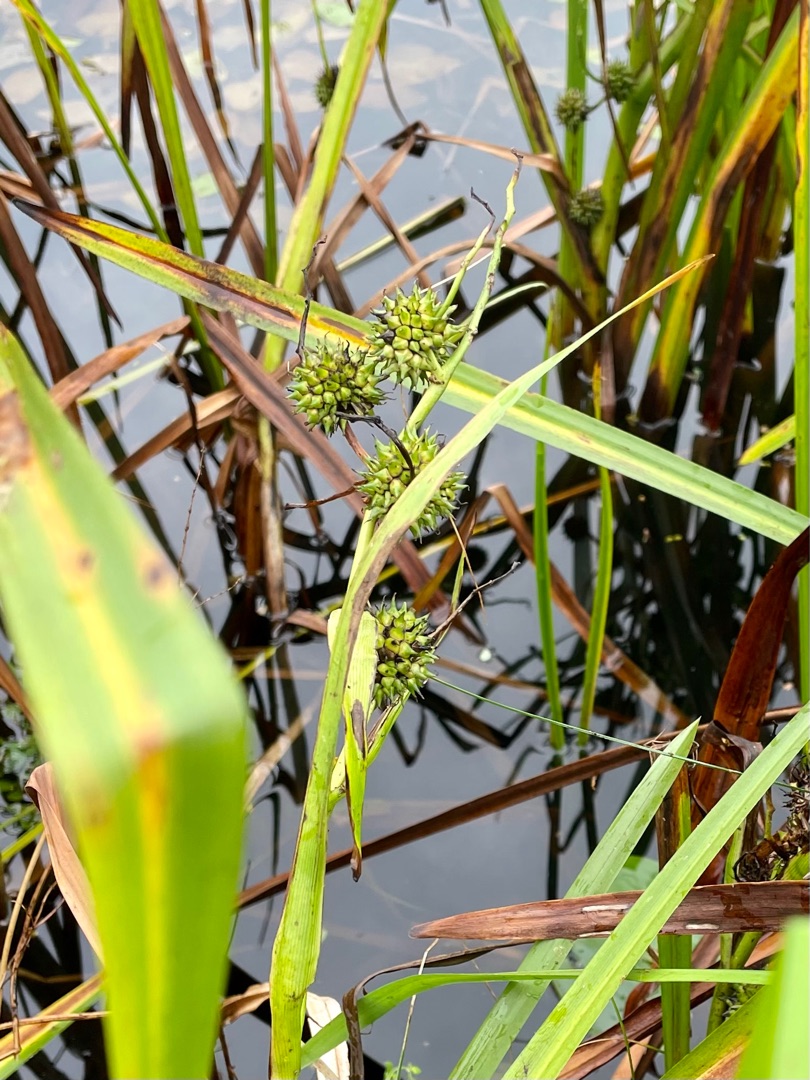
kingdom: Plantae
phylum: Tracheophyta
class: Liliopsida
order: Poales
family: Typhaceae
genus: Sparganium
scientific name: Sparganium emersum
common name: Enkelt pindsvineknop
